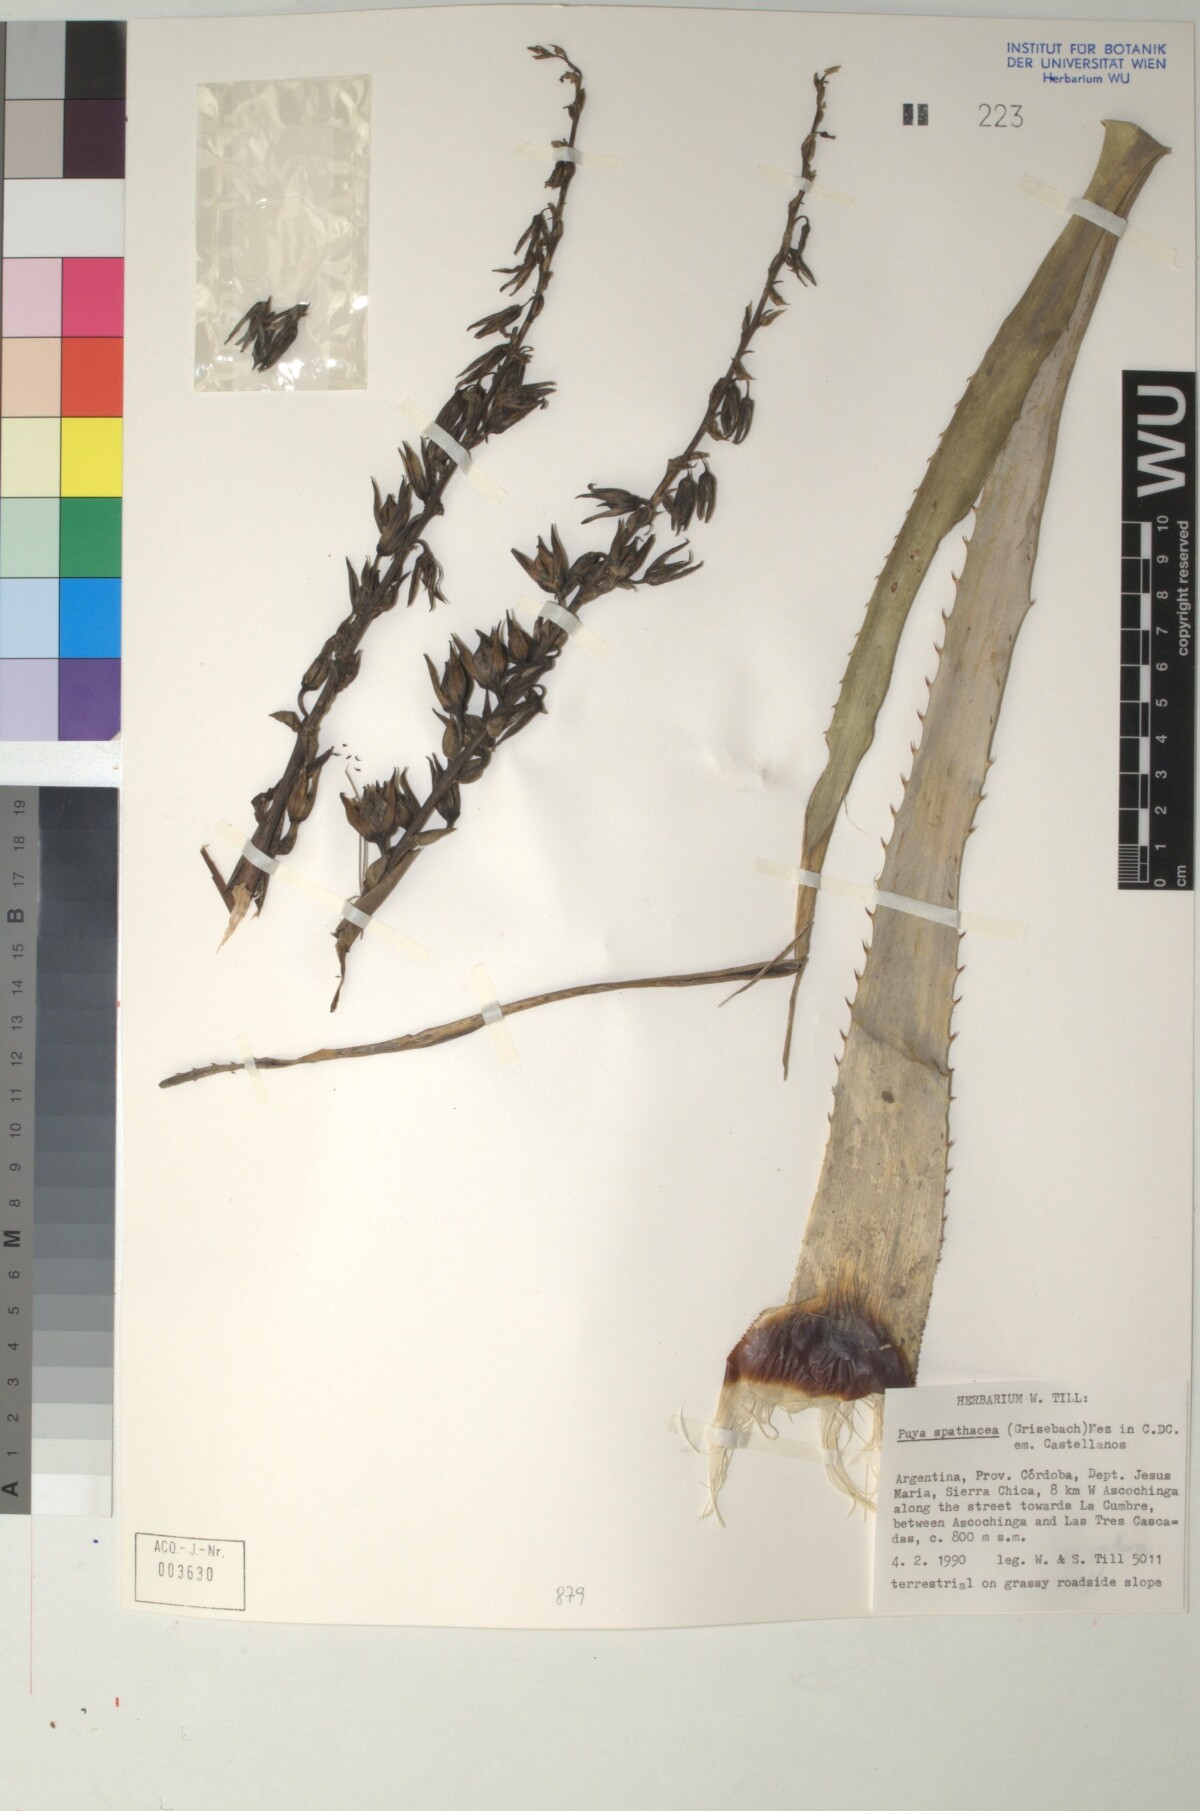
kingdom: Plantae
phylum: Tracheophyta
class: Liliopsida
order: Poales
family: Bromeliaceae
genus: Puya
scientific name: Puya spathacea
